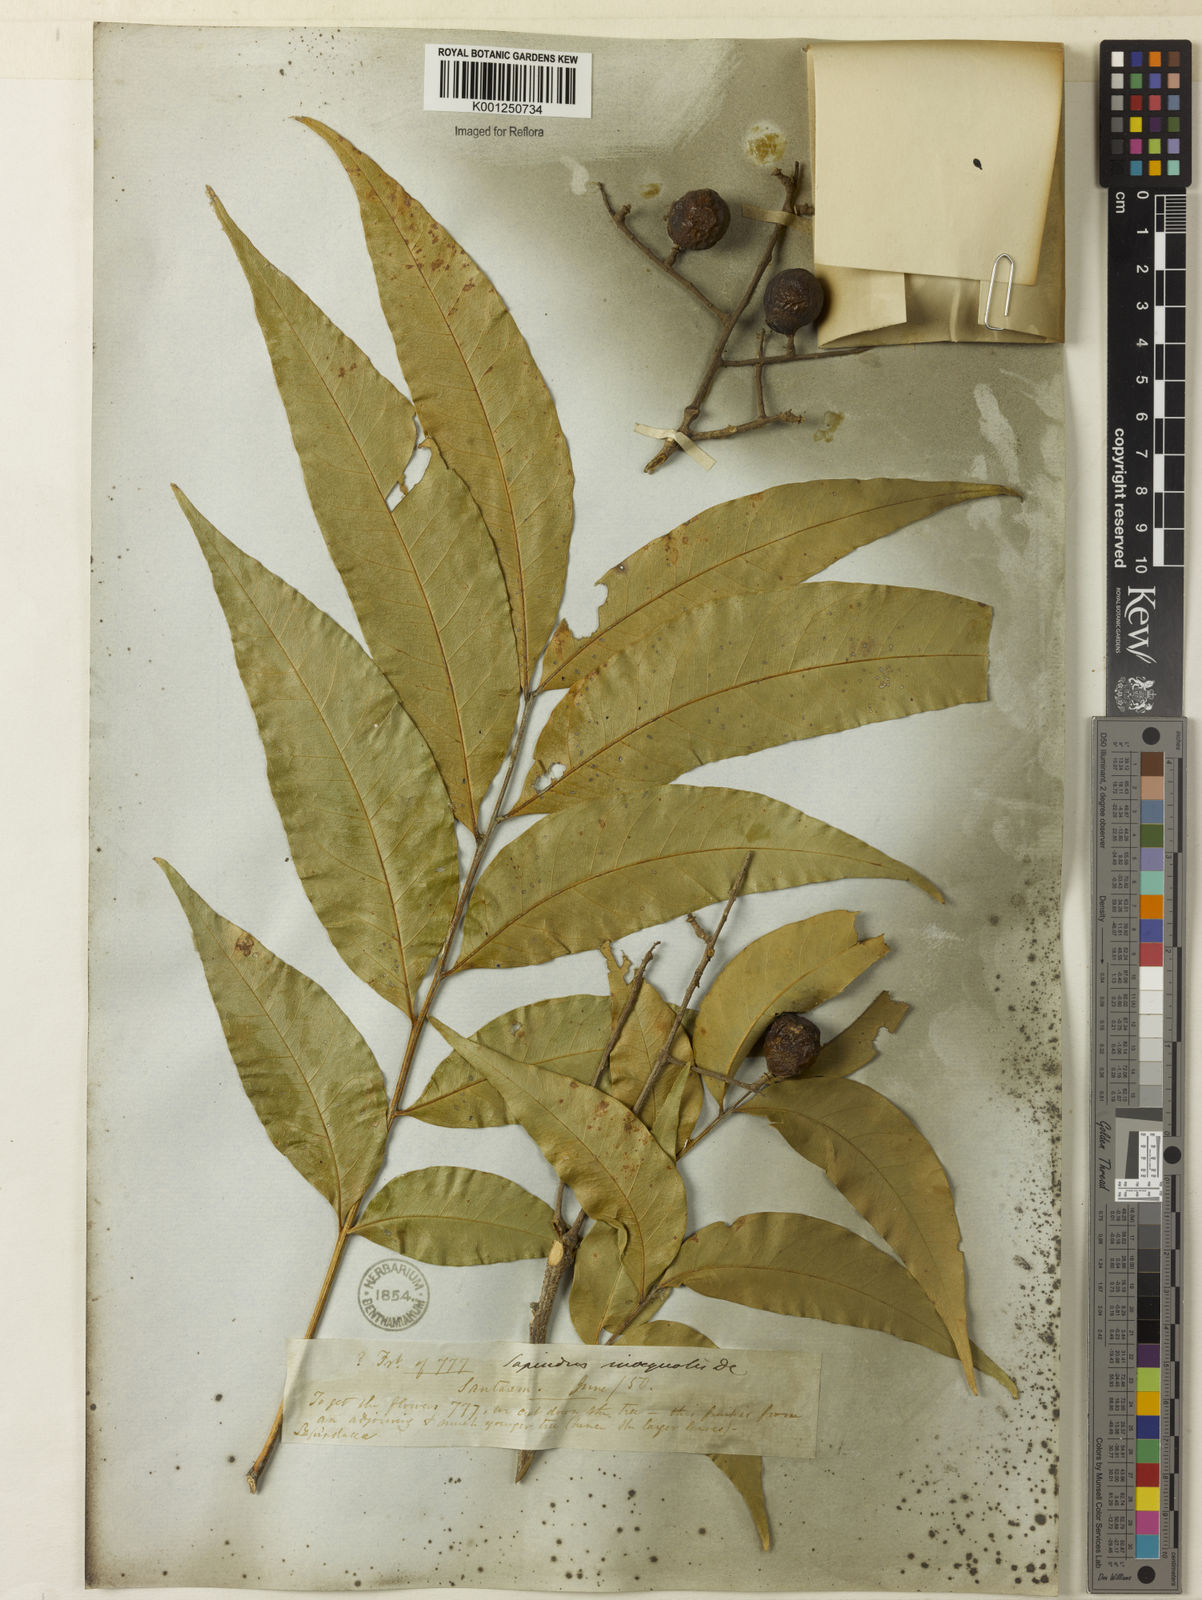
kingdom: Plantae
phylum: Tracheophyta
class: Magnoliopsida
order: Sapindales
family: Sapindaceae
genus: Sapindus
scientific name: Sapindus saponaria
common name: Wingleaf soapberry
